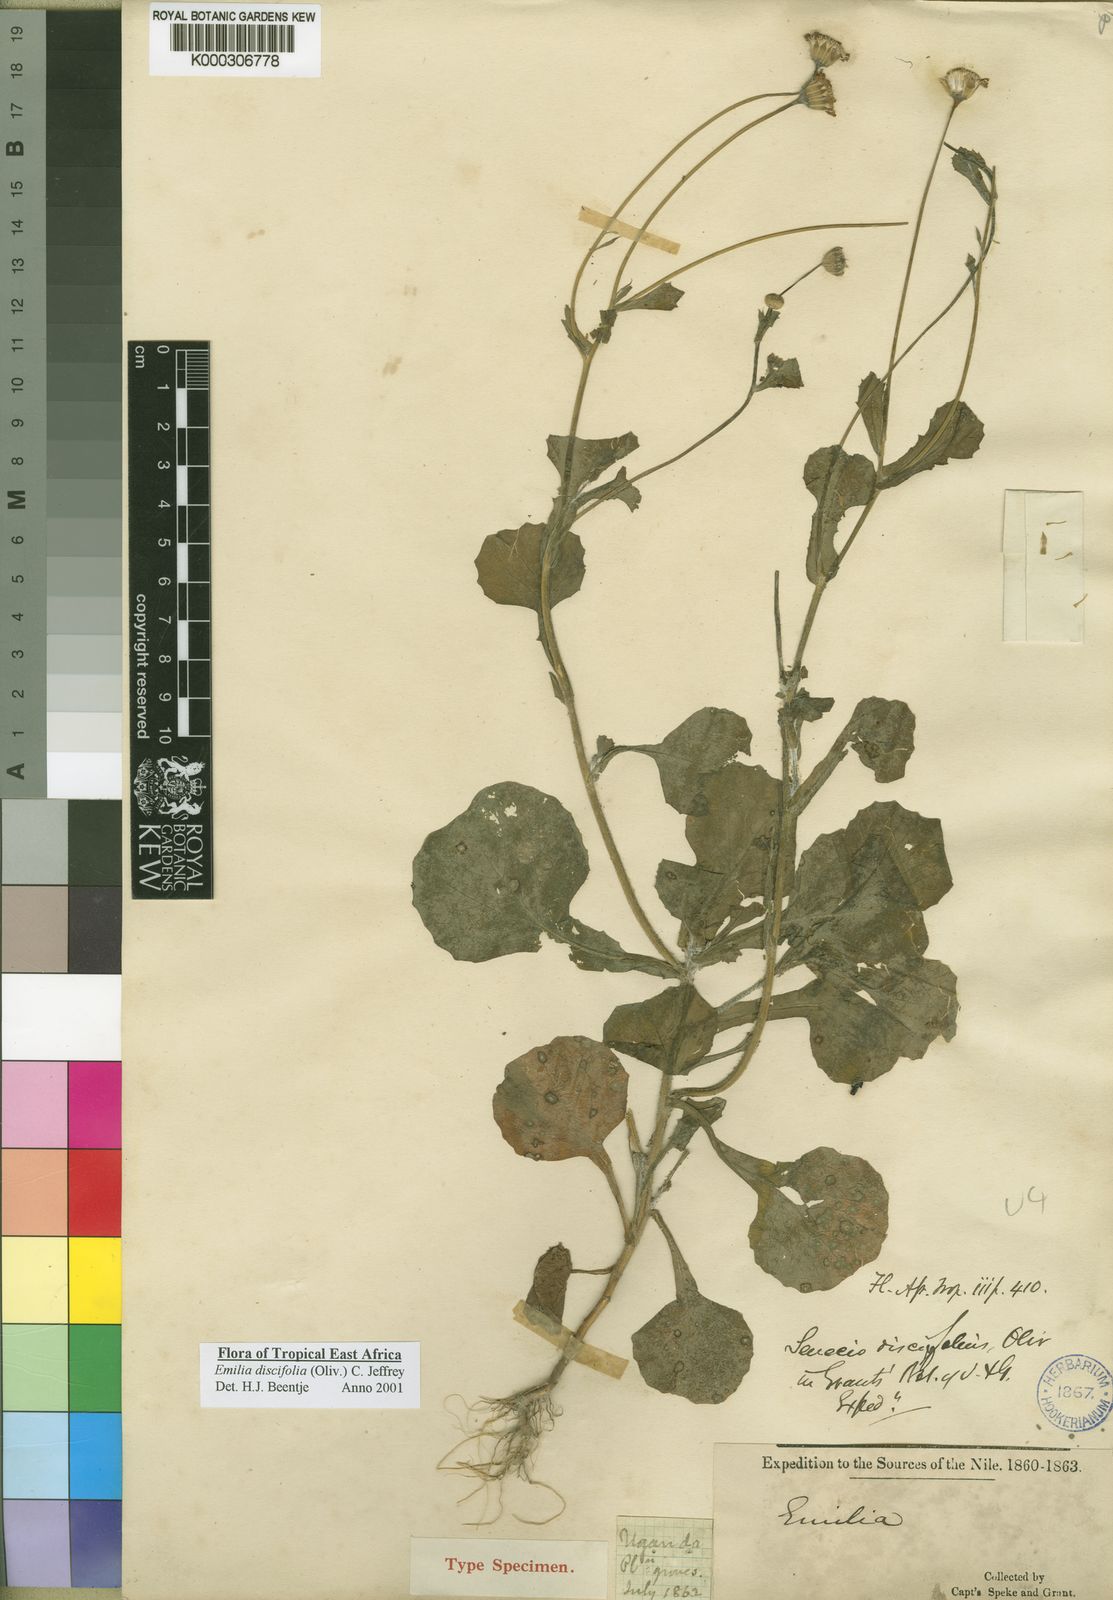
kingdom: Plantae
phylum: Tracheophyta
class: Magnoliopsida
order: Asterales
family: Asteraceae
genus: Emilia
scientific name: Emilia discifolia
